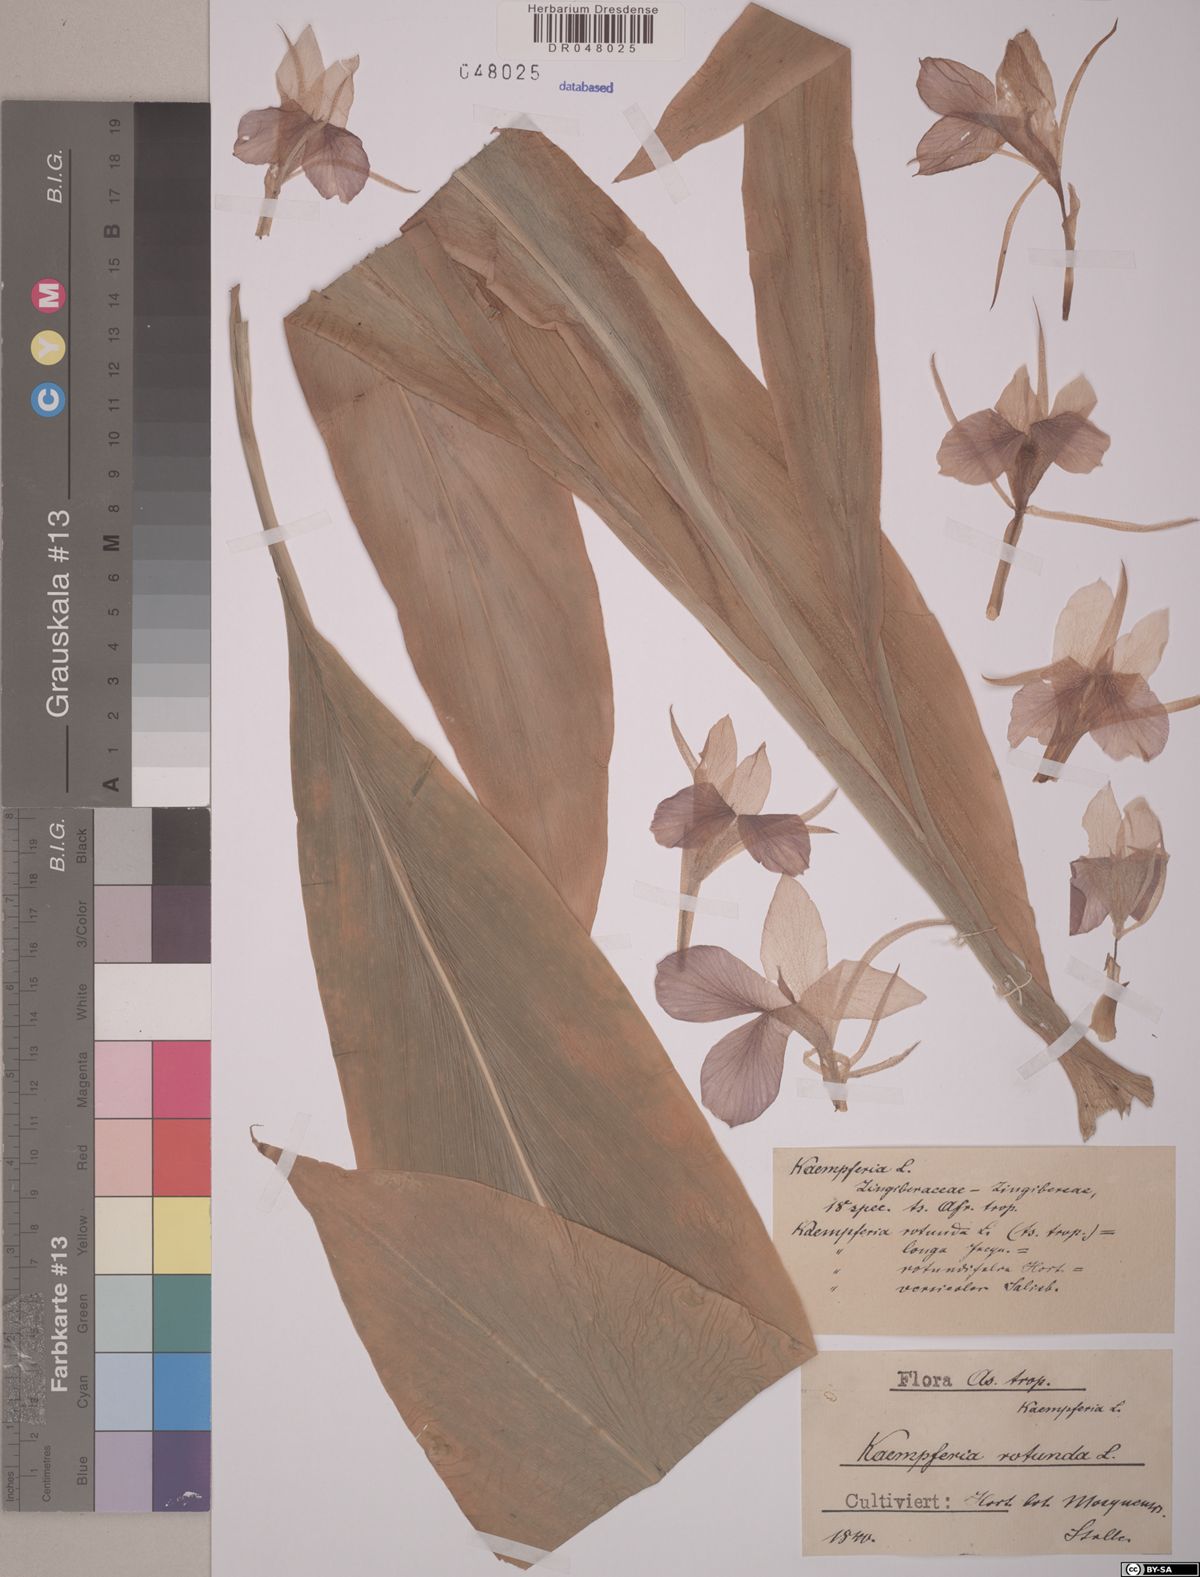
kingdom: Plantae
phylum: Tracheophyta
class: Liliopsida
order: Zingiberales
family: Zingiberaceae
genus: Kaempferia
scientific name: Kaempferia rotunda
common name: Tropical-crocus
